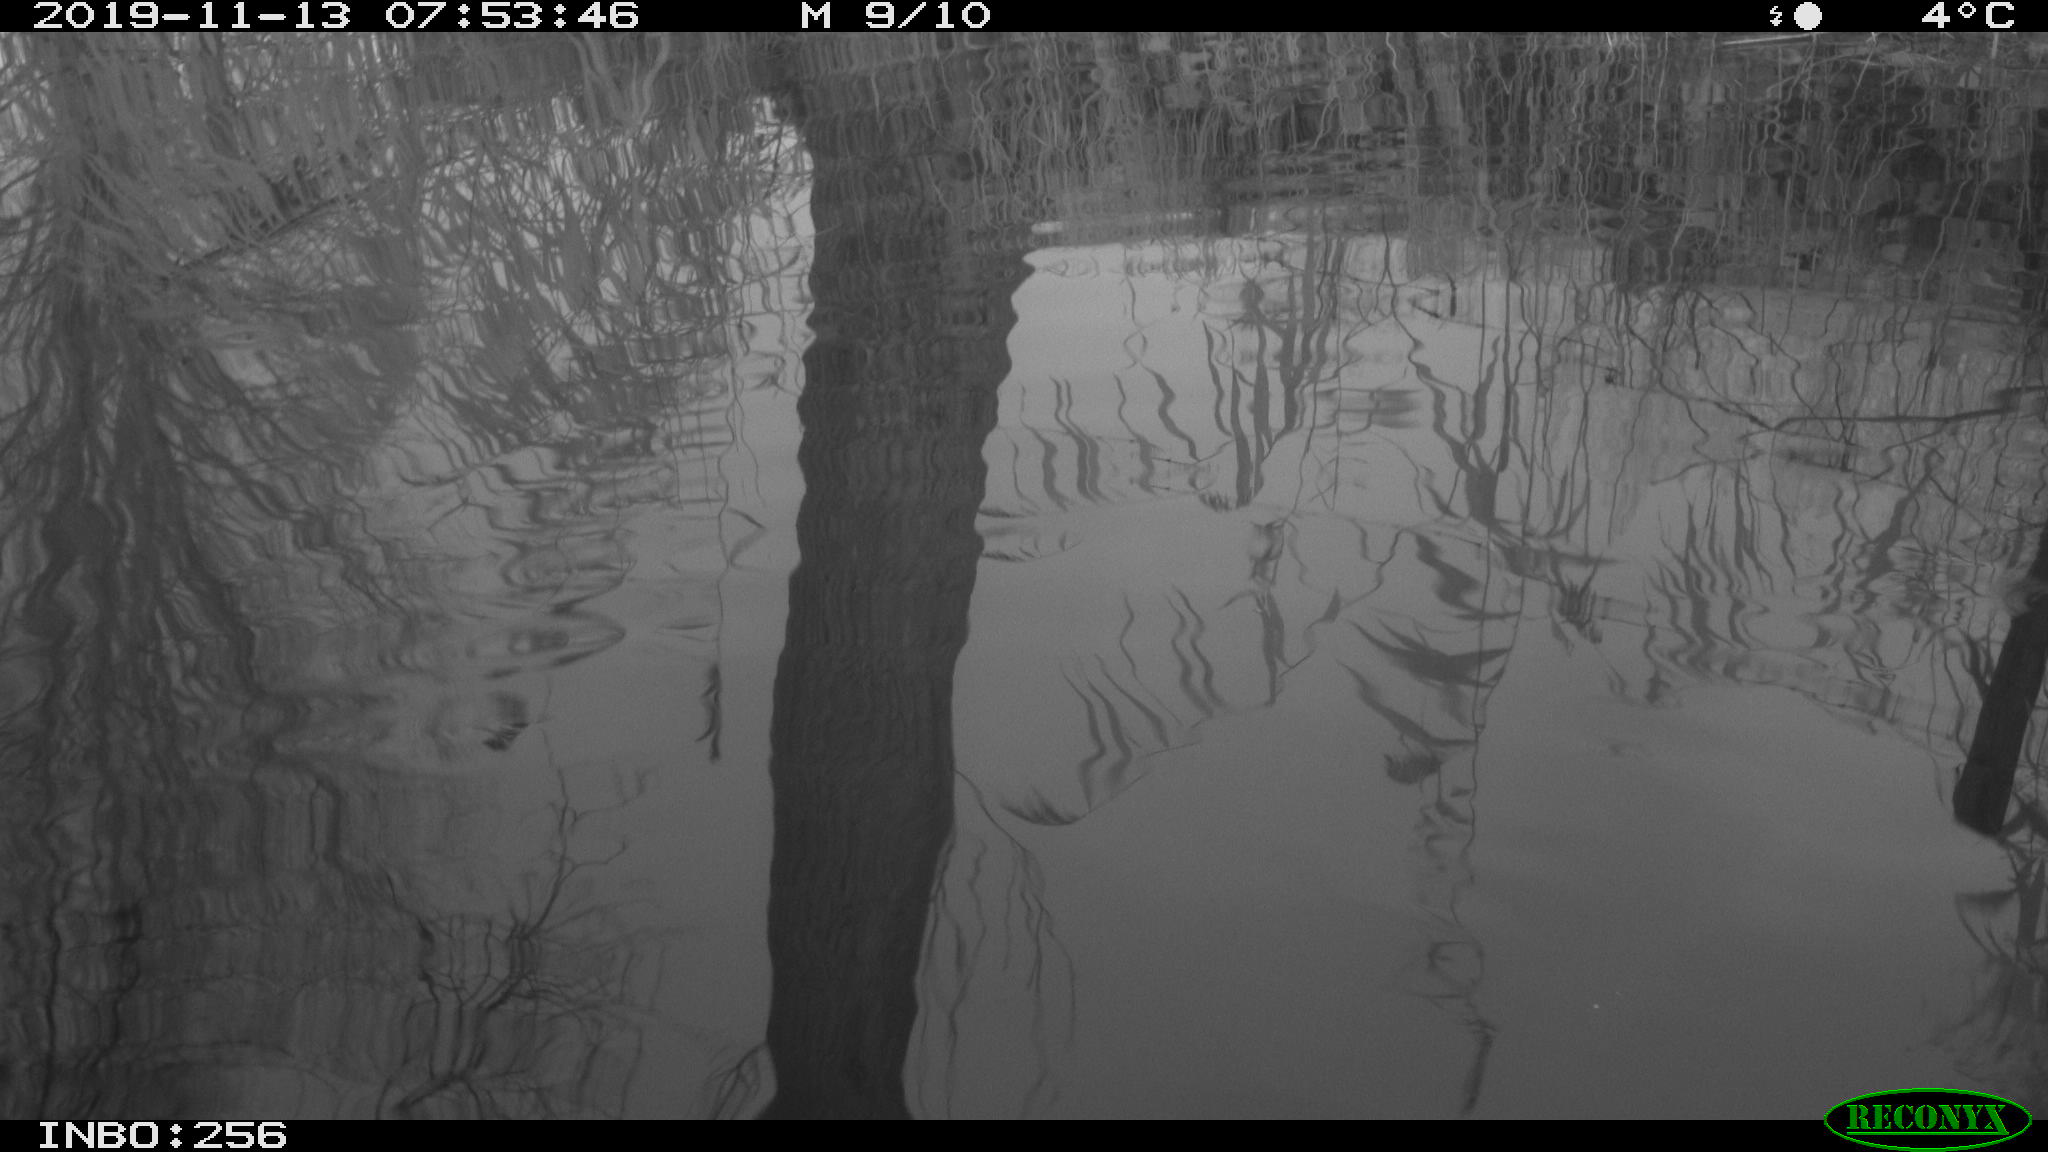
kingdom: Animalia
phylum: Chordata
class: Mammalia
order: Rodentia
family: Cricetidae
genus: Ondatra
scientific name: Ondatra zibethicus
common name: Muskrat
